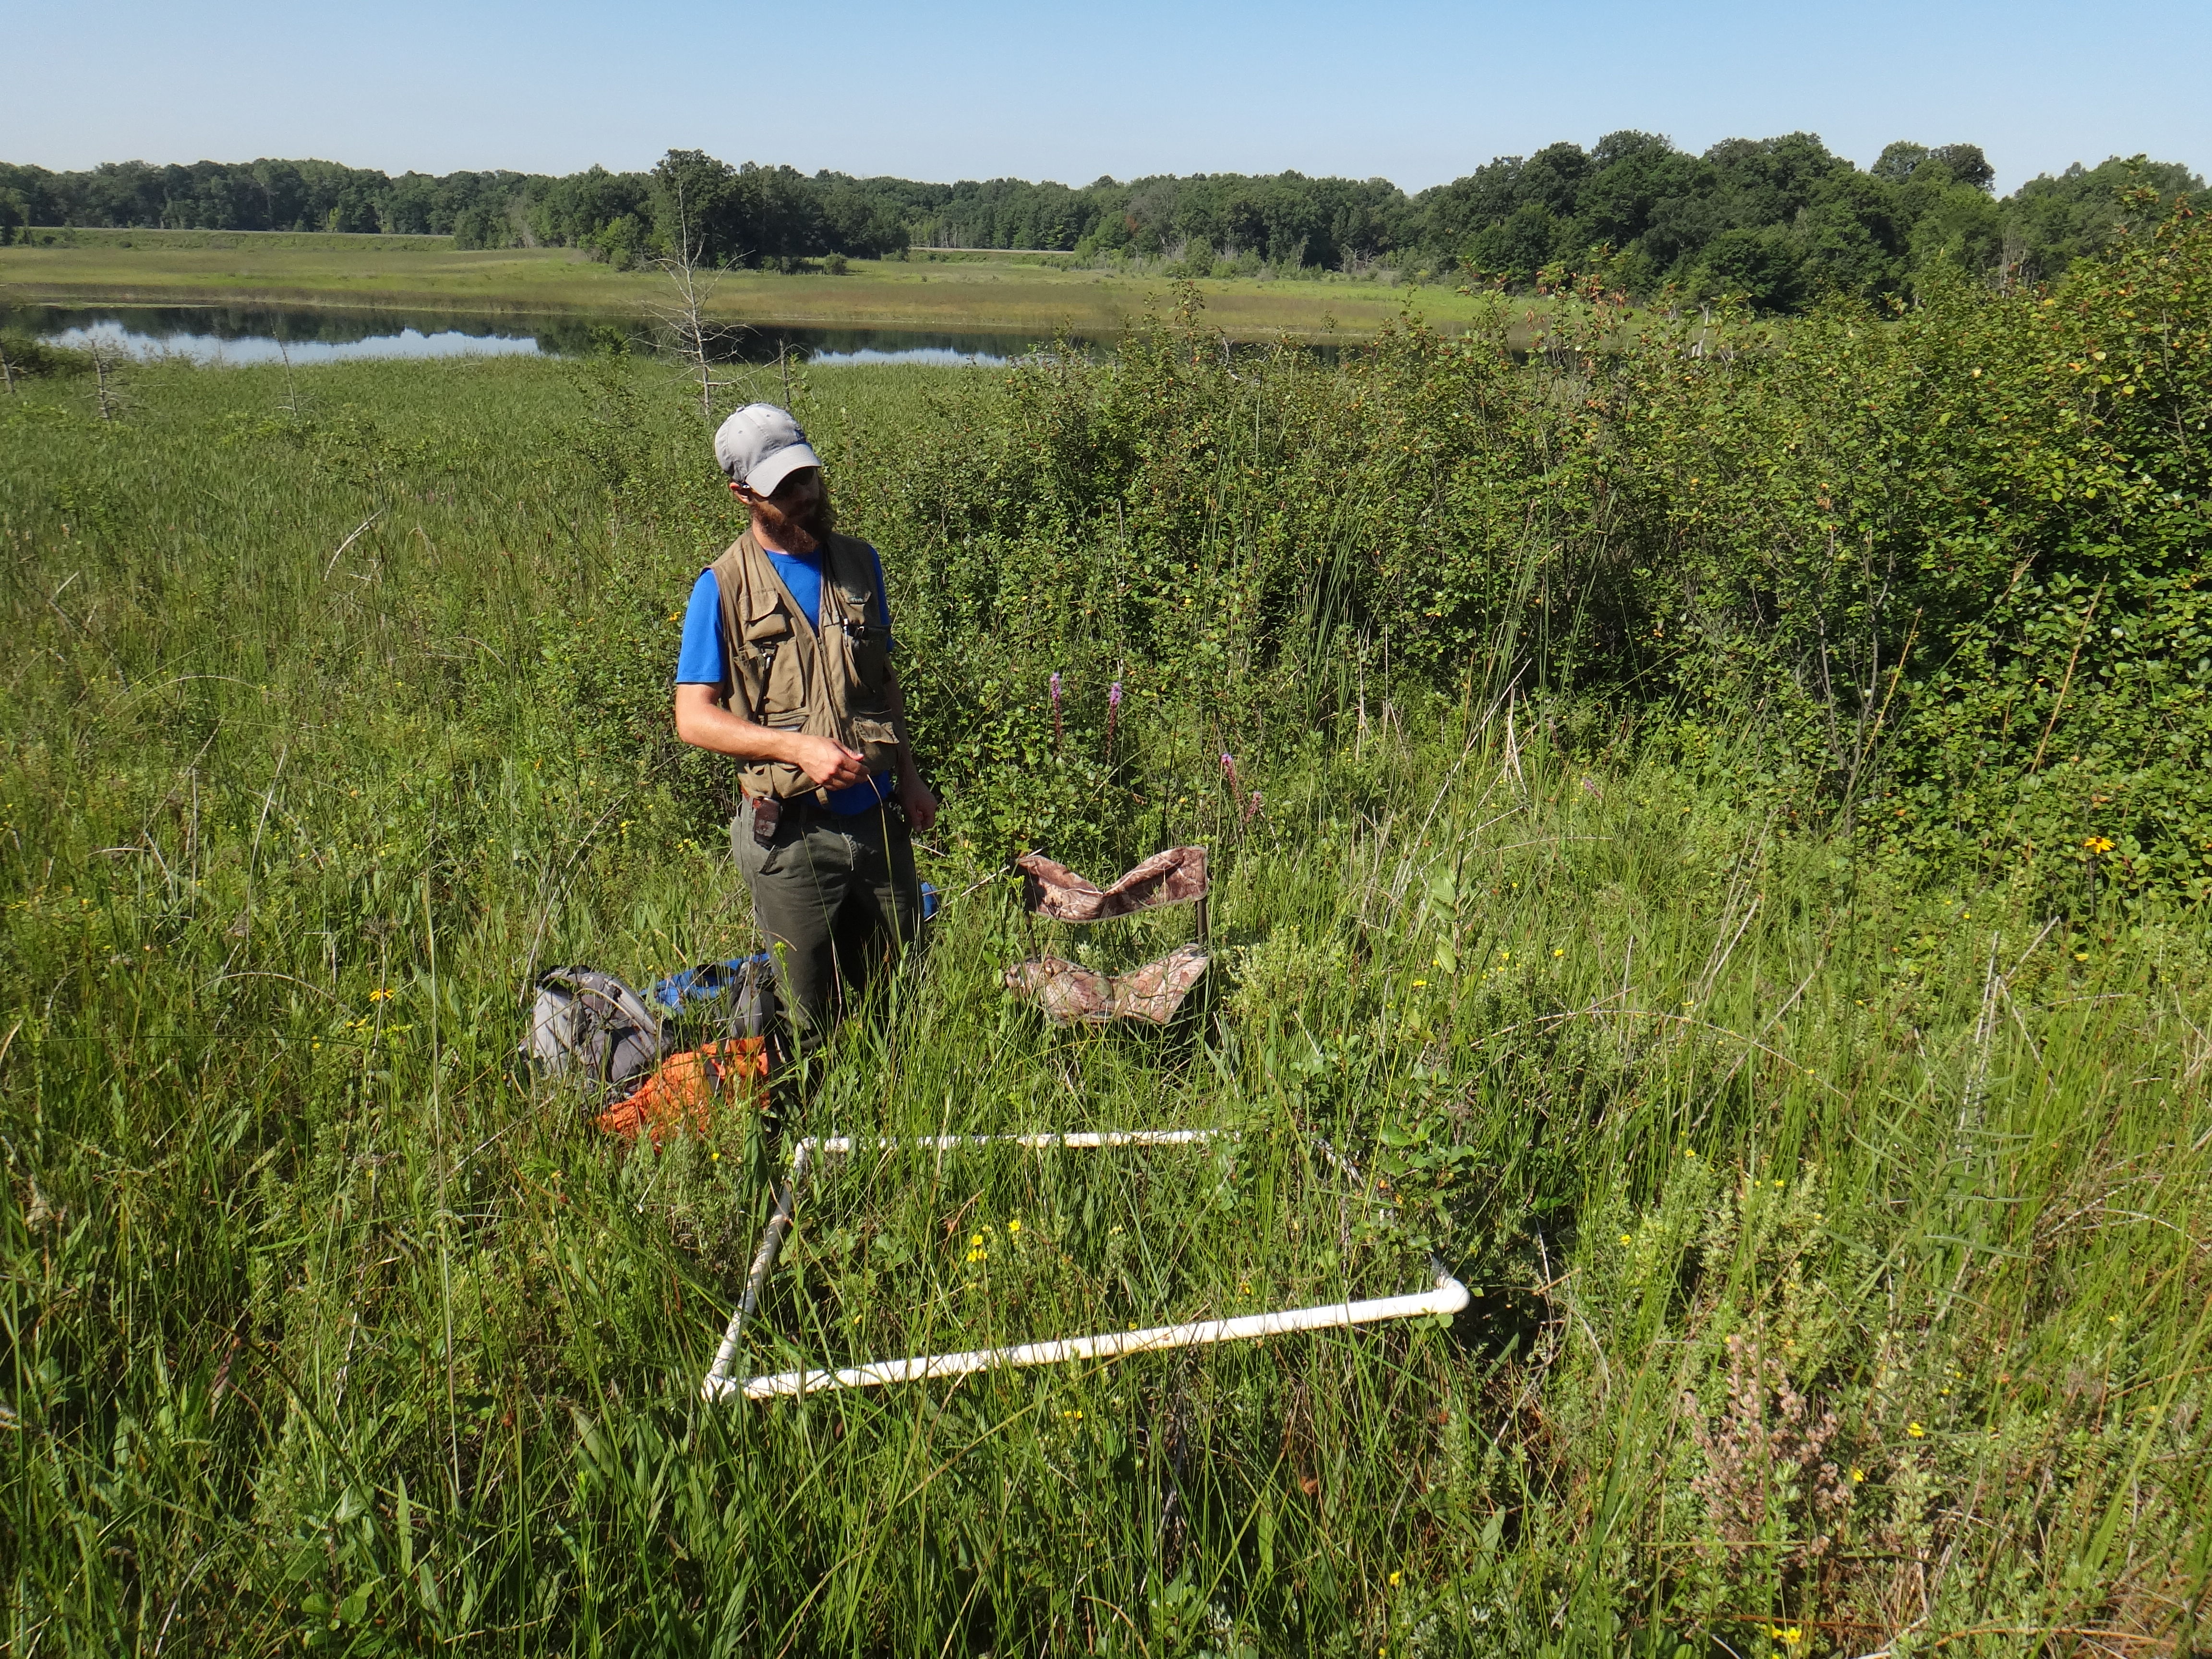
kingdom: Plantae
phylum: Tracheophyta
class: Magnoliopsida
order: Asterales
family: Asteraceae
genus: Silphium
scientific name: Silphium terebinthinaceum
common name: Basal-leaf rosinweed
